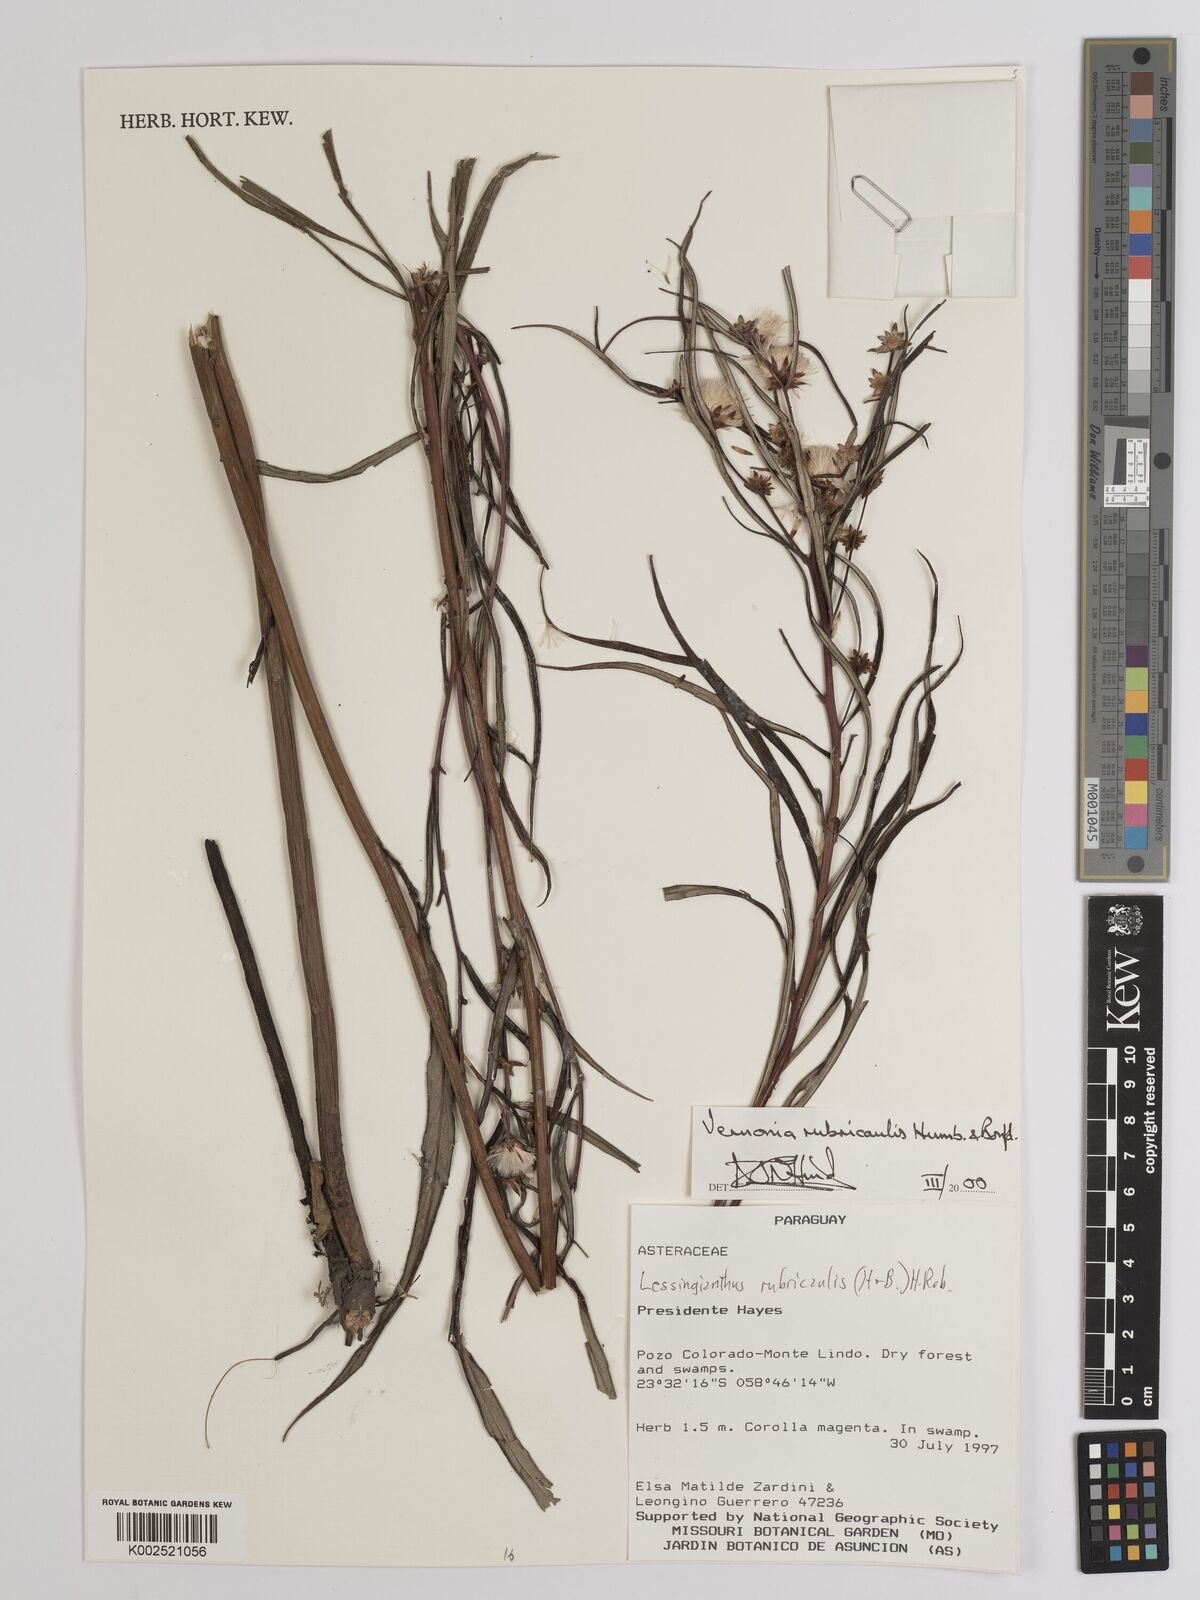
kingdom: Plantae
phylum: Tracheophyta
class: Magnoliopsida
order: Asterales
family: Asteraceae
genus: Lessingianthus
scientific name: Lessingianthus rubricaulis
